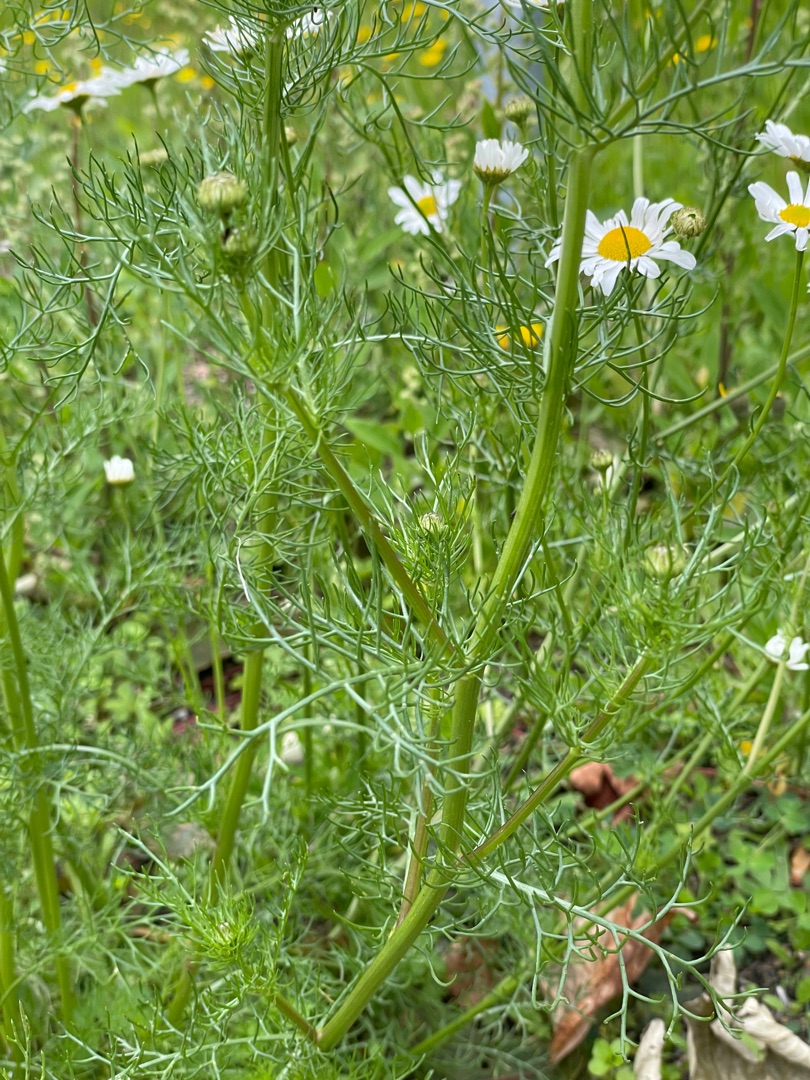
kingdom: Plantae
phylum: Tracheophyta
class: Magnoliopsida
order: Asterales
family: Asteraceae
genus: Tripleurospermum
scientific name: Tripleurospermum inodorum
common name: Lugtløs kamille
